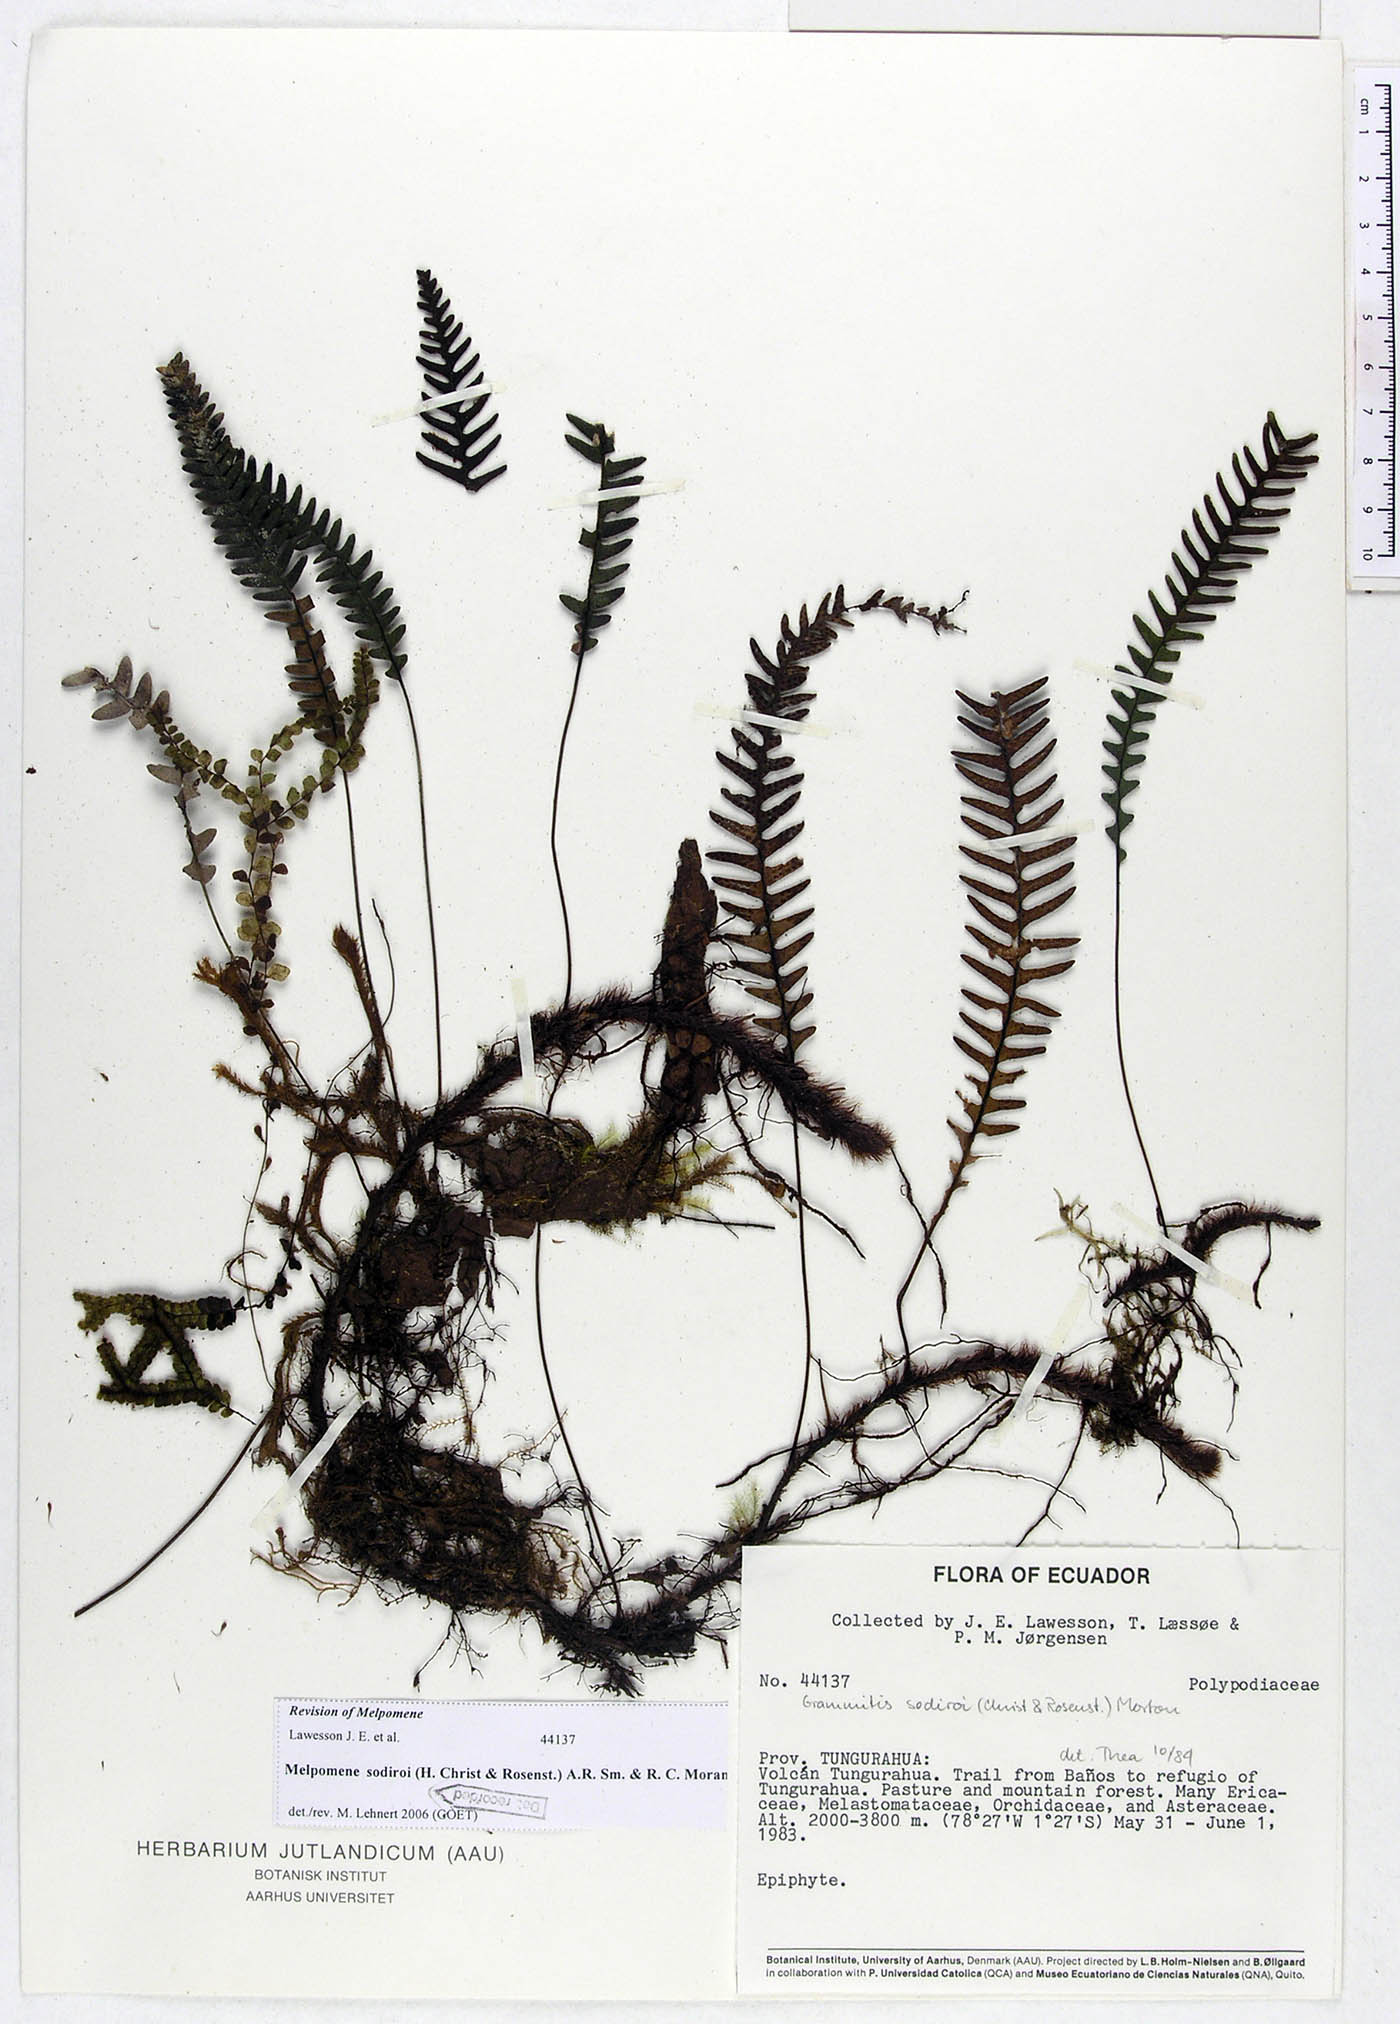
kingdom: Plantae
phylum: Tracheophyta
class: Polypodiopsida
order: Polypodiales
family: Polypodiaceae
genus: Melpomene
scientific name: Melpomene sodiroi
